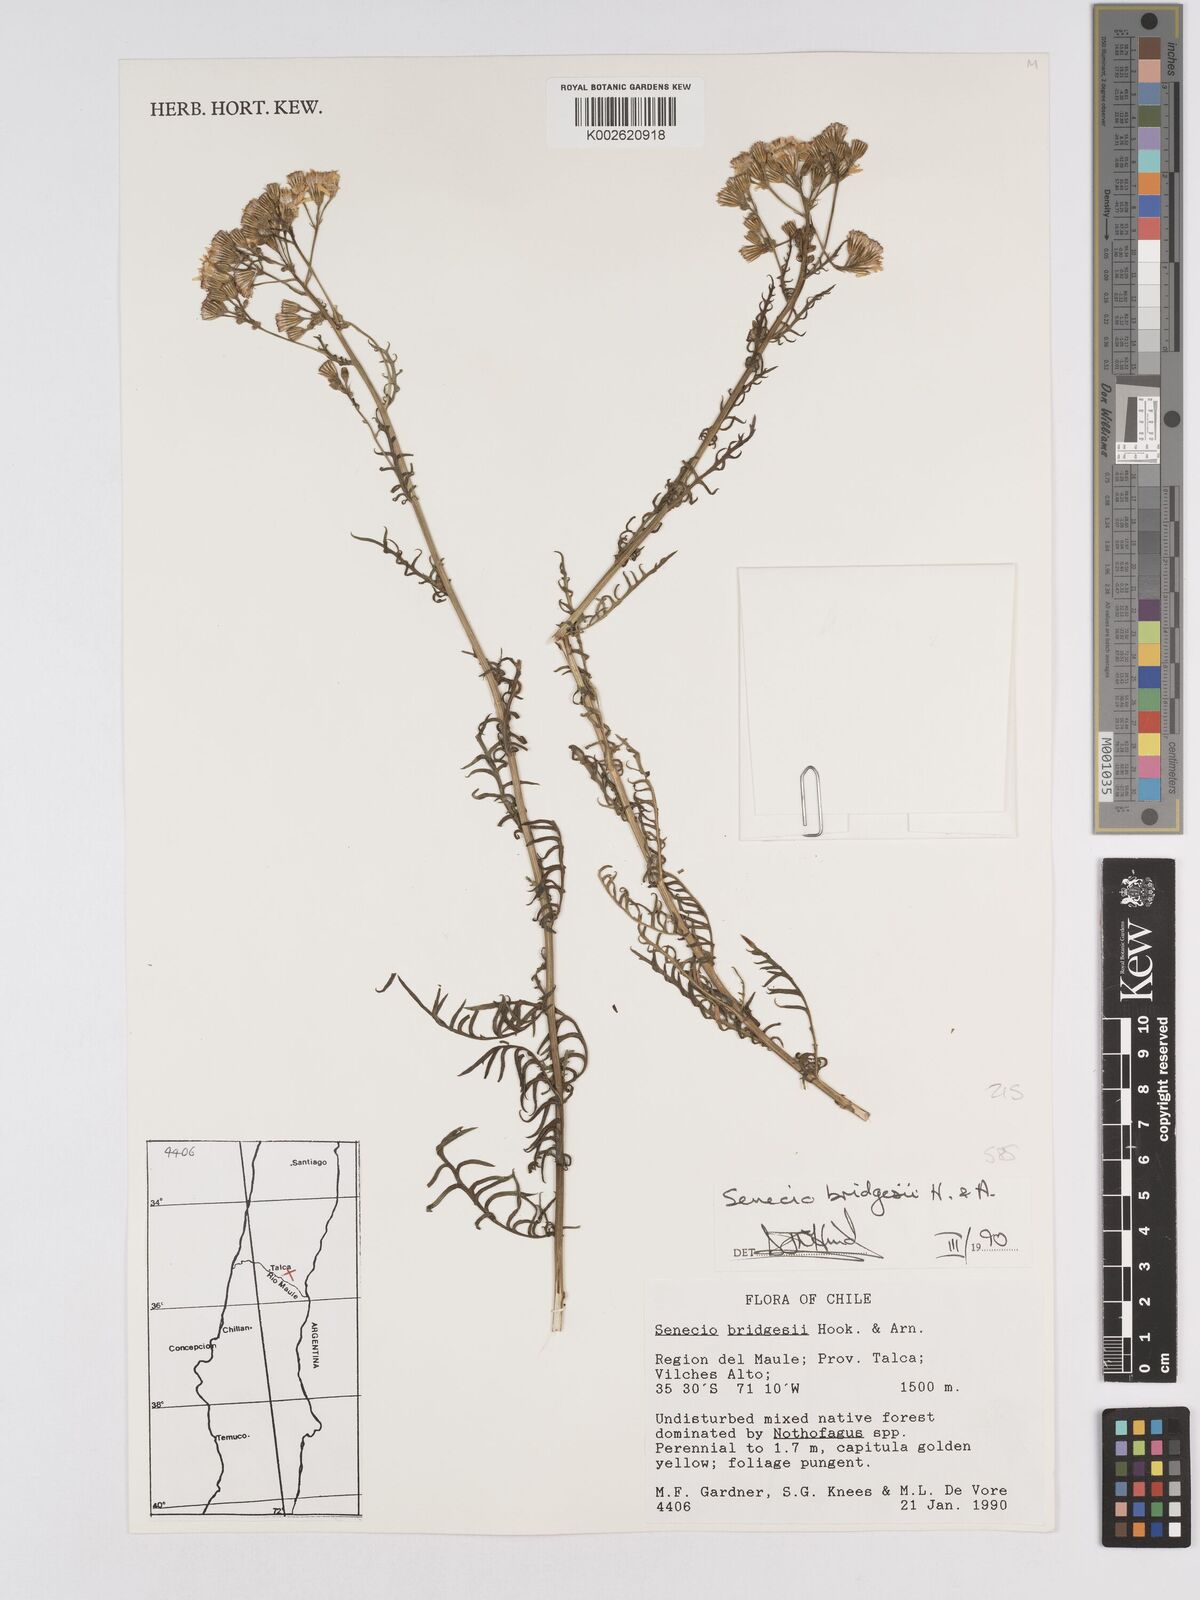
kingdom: Plantae
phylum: Tracheophyta
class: Magnoliopsida
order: Asterales
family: Asteraceae
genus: Senecio
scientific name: Senecio bridgesii
